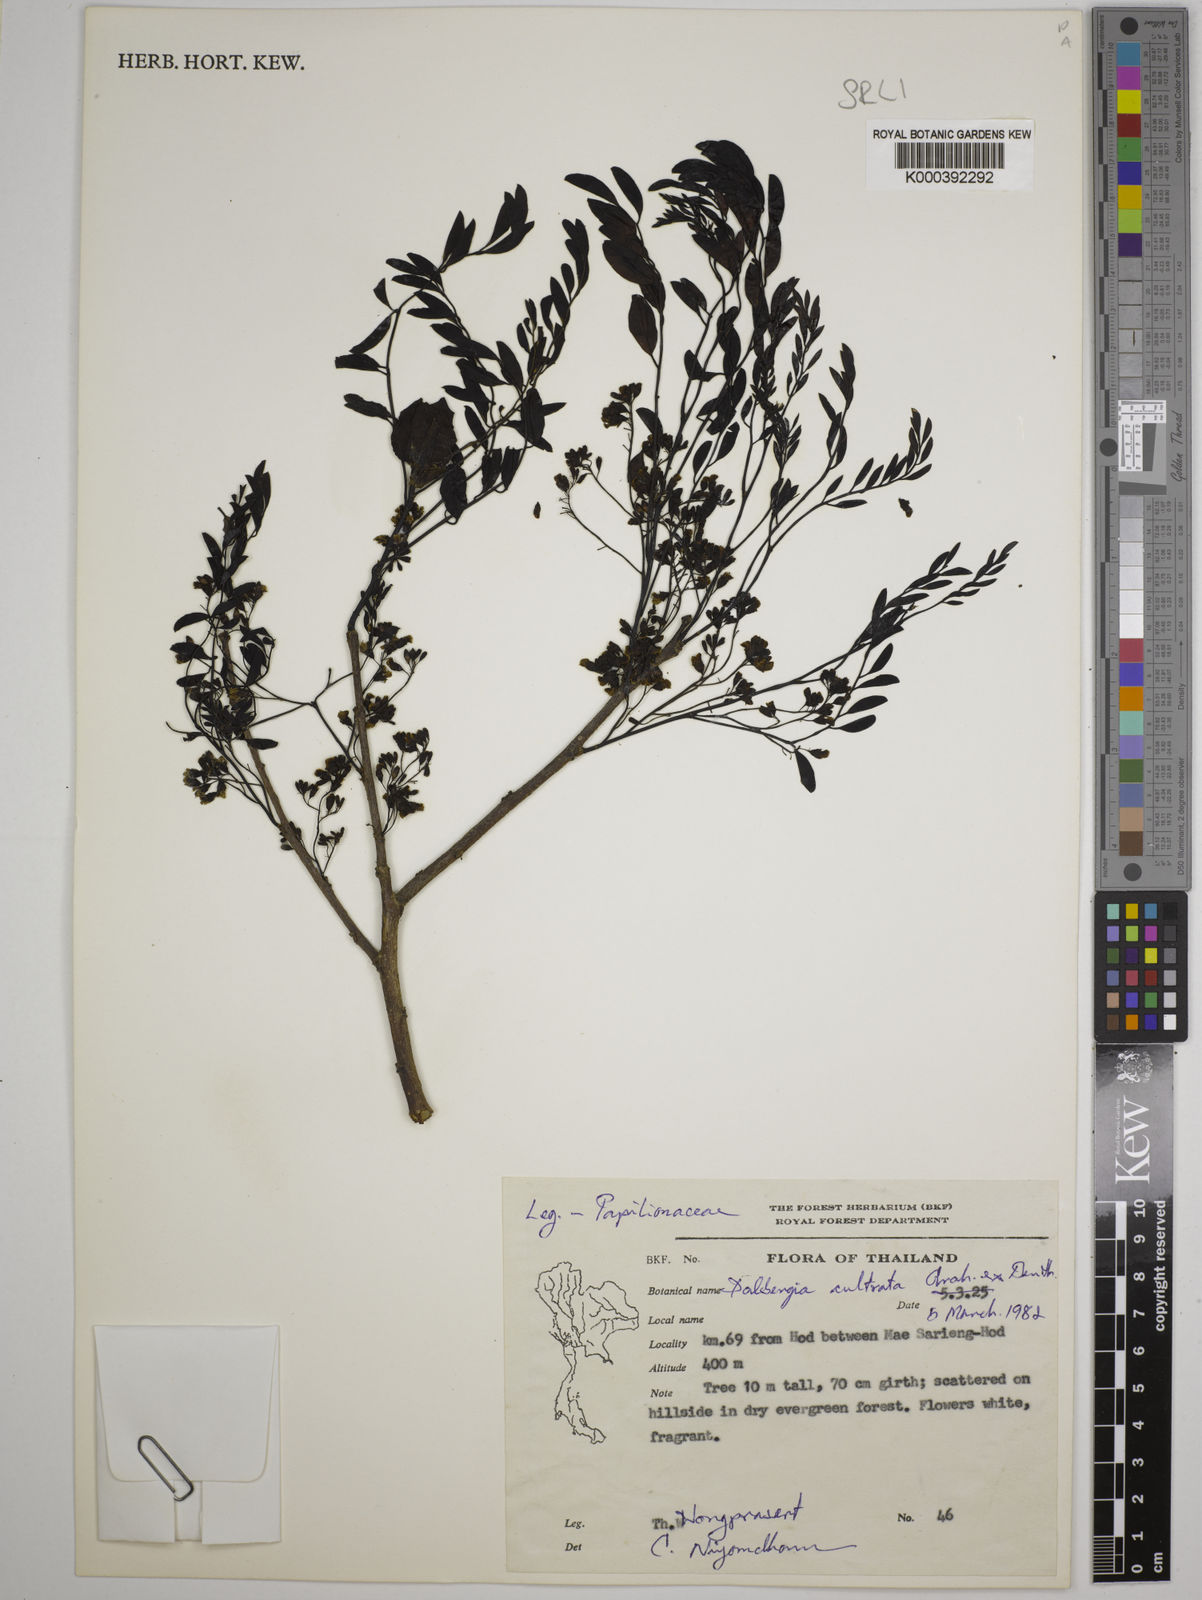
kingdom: Plantae
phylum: Tracheophyta
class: Magnoliopsida
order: Fabales
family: Fabaceae
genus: Dalbergia
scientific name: Dalbergia
